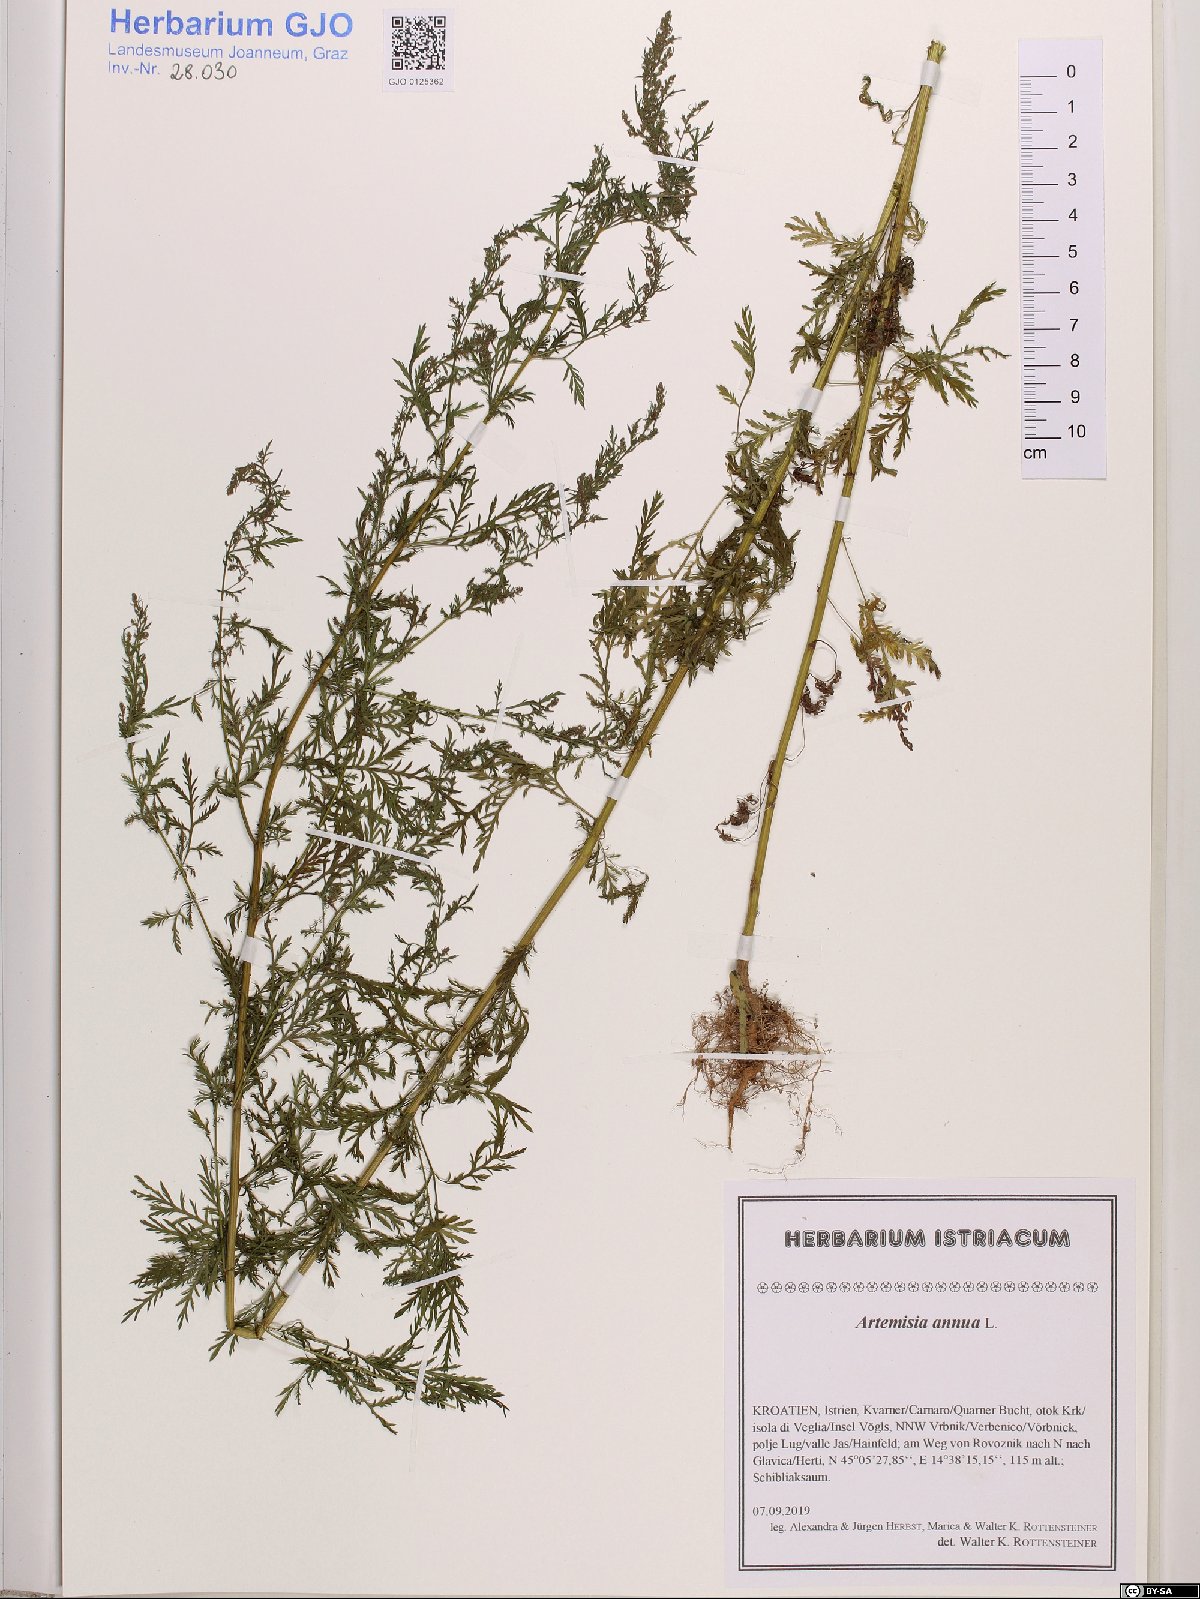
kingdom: Plantae
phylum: Tracheophyta
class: Magnoliopsida
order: Asterales
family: Asteraceae
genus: Artemisia
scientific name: Artemisia annua
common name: Sweet sagewort
